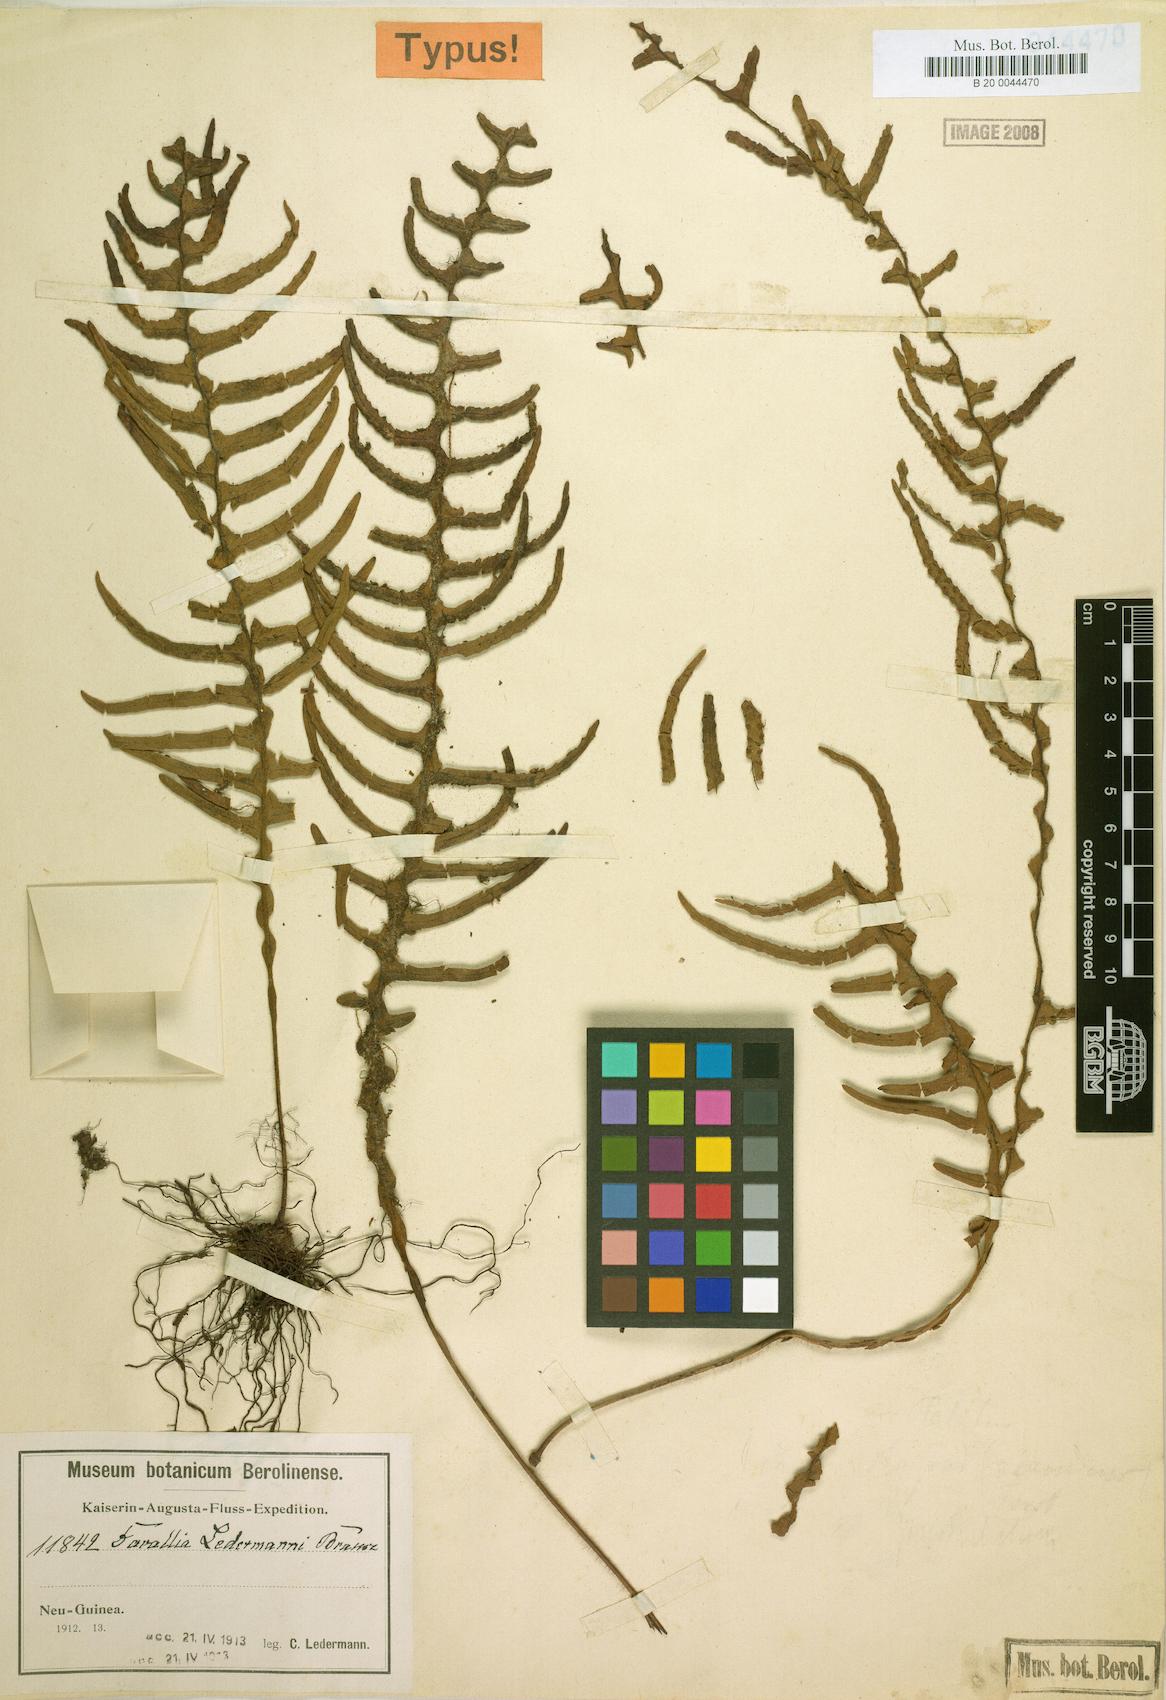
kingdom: Plantae
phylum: Tracheophyta
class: Polypodiopsida
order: Polypodiales
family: Polypodiaceae
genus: Prosaptia
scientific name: Prosaptia ledermannii
